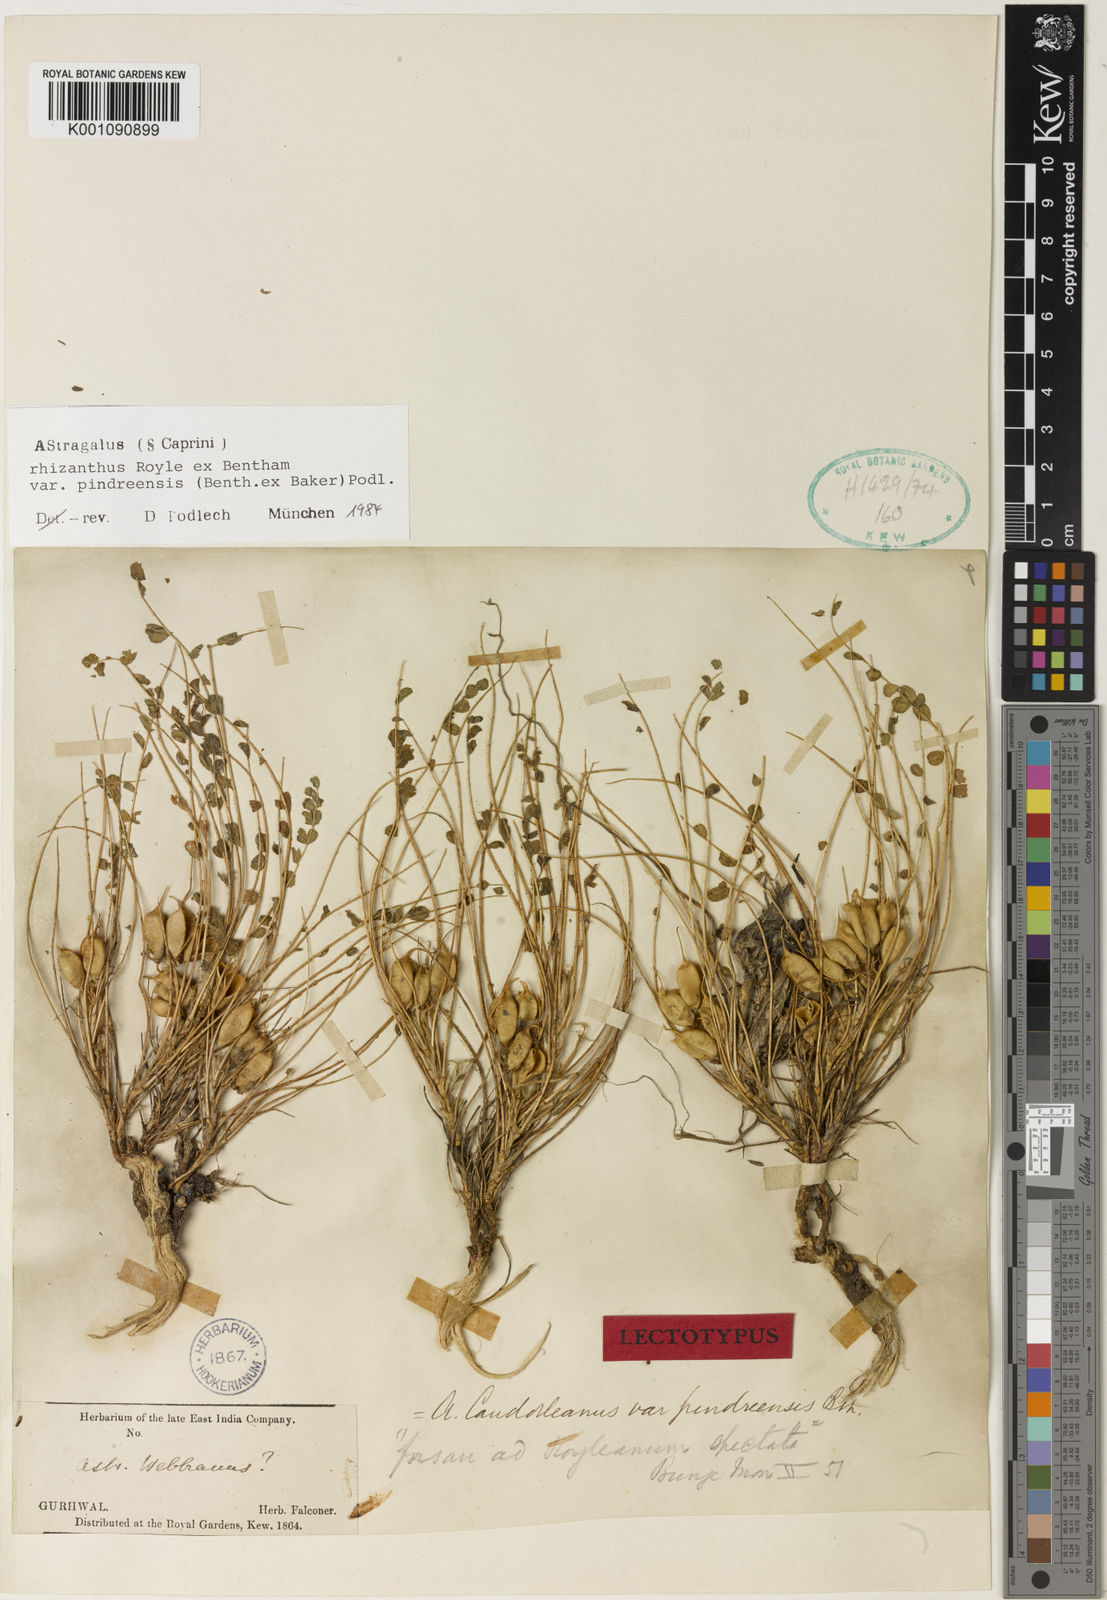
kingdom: Plantae
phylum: Tracheophyta
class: Magnoliopsida
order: Fabales
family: Fabaceae
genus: Astragalus
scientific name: Astragalus
